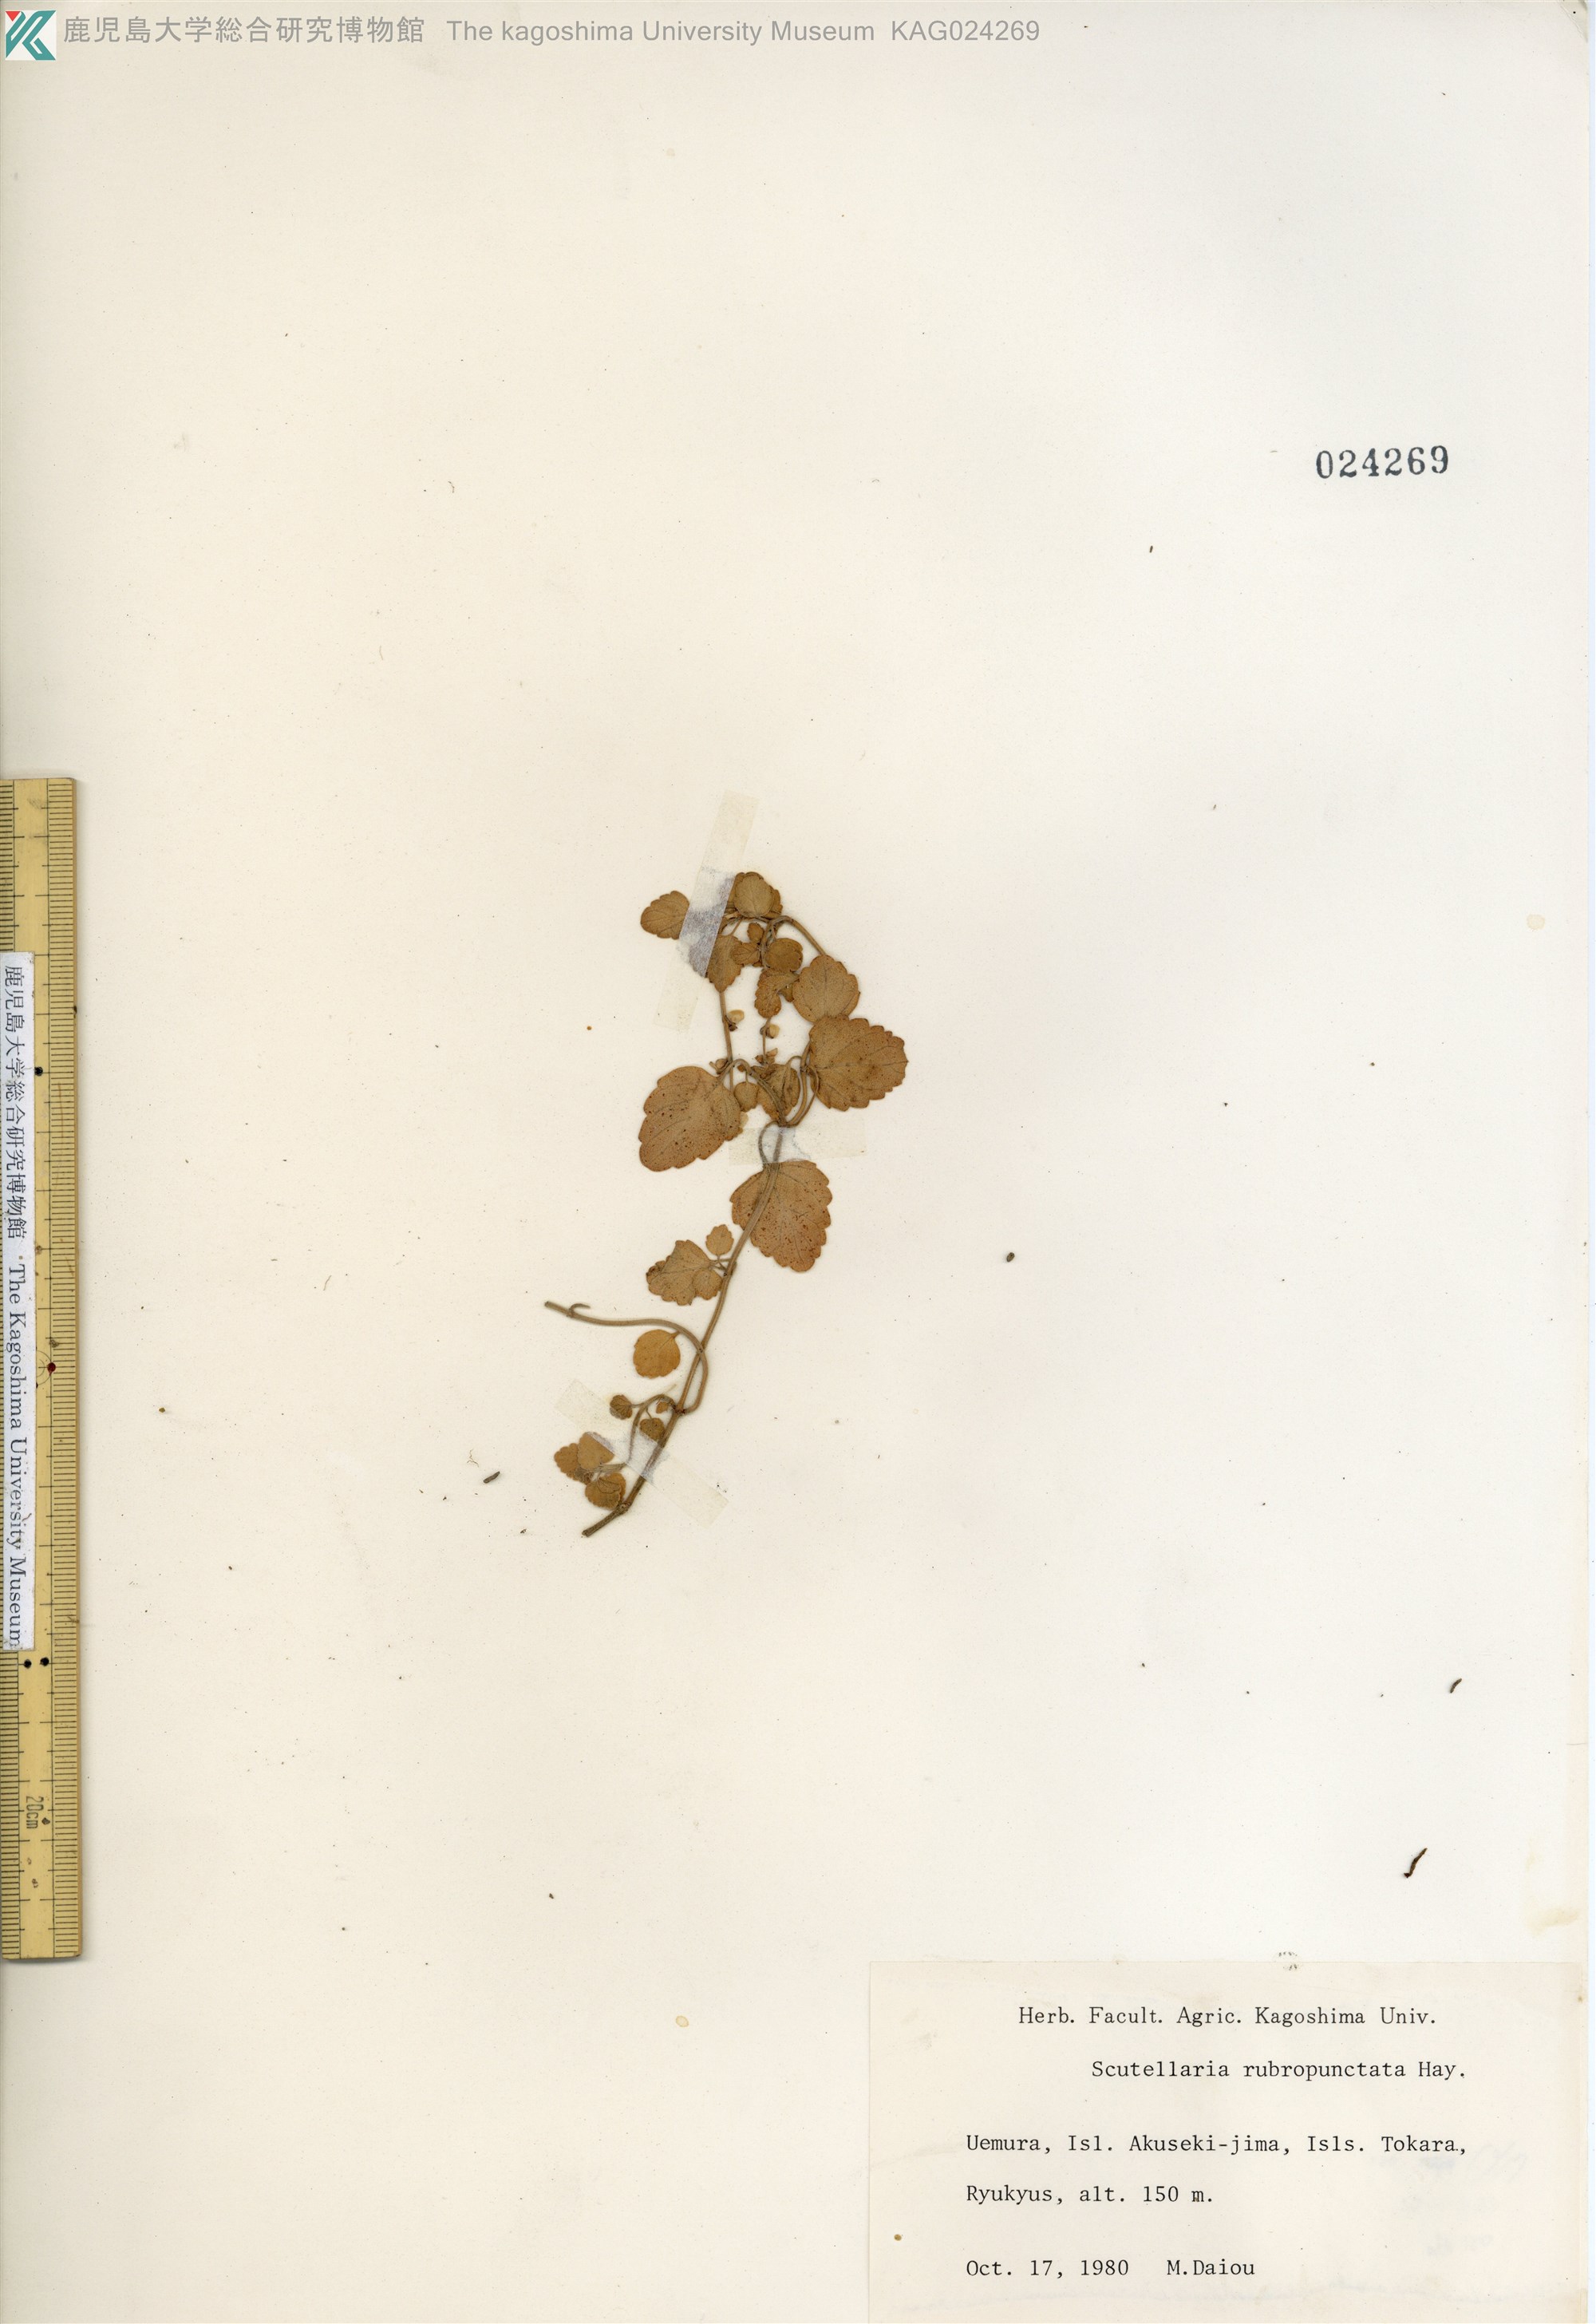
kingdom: Plantae
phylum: Tracheophyta
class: Magnoliopsida
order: Lamiales
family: Lamiaceae
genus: Scutellaria
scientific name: Scutellaria rubropunctata
